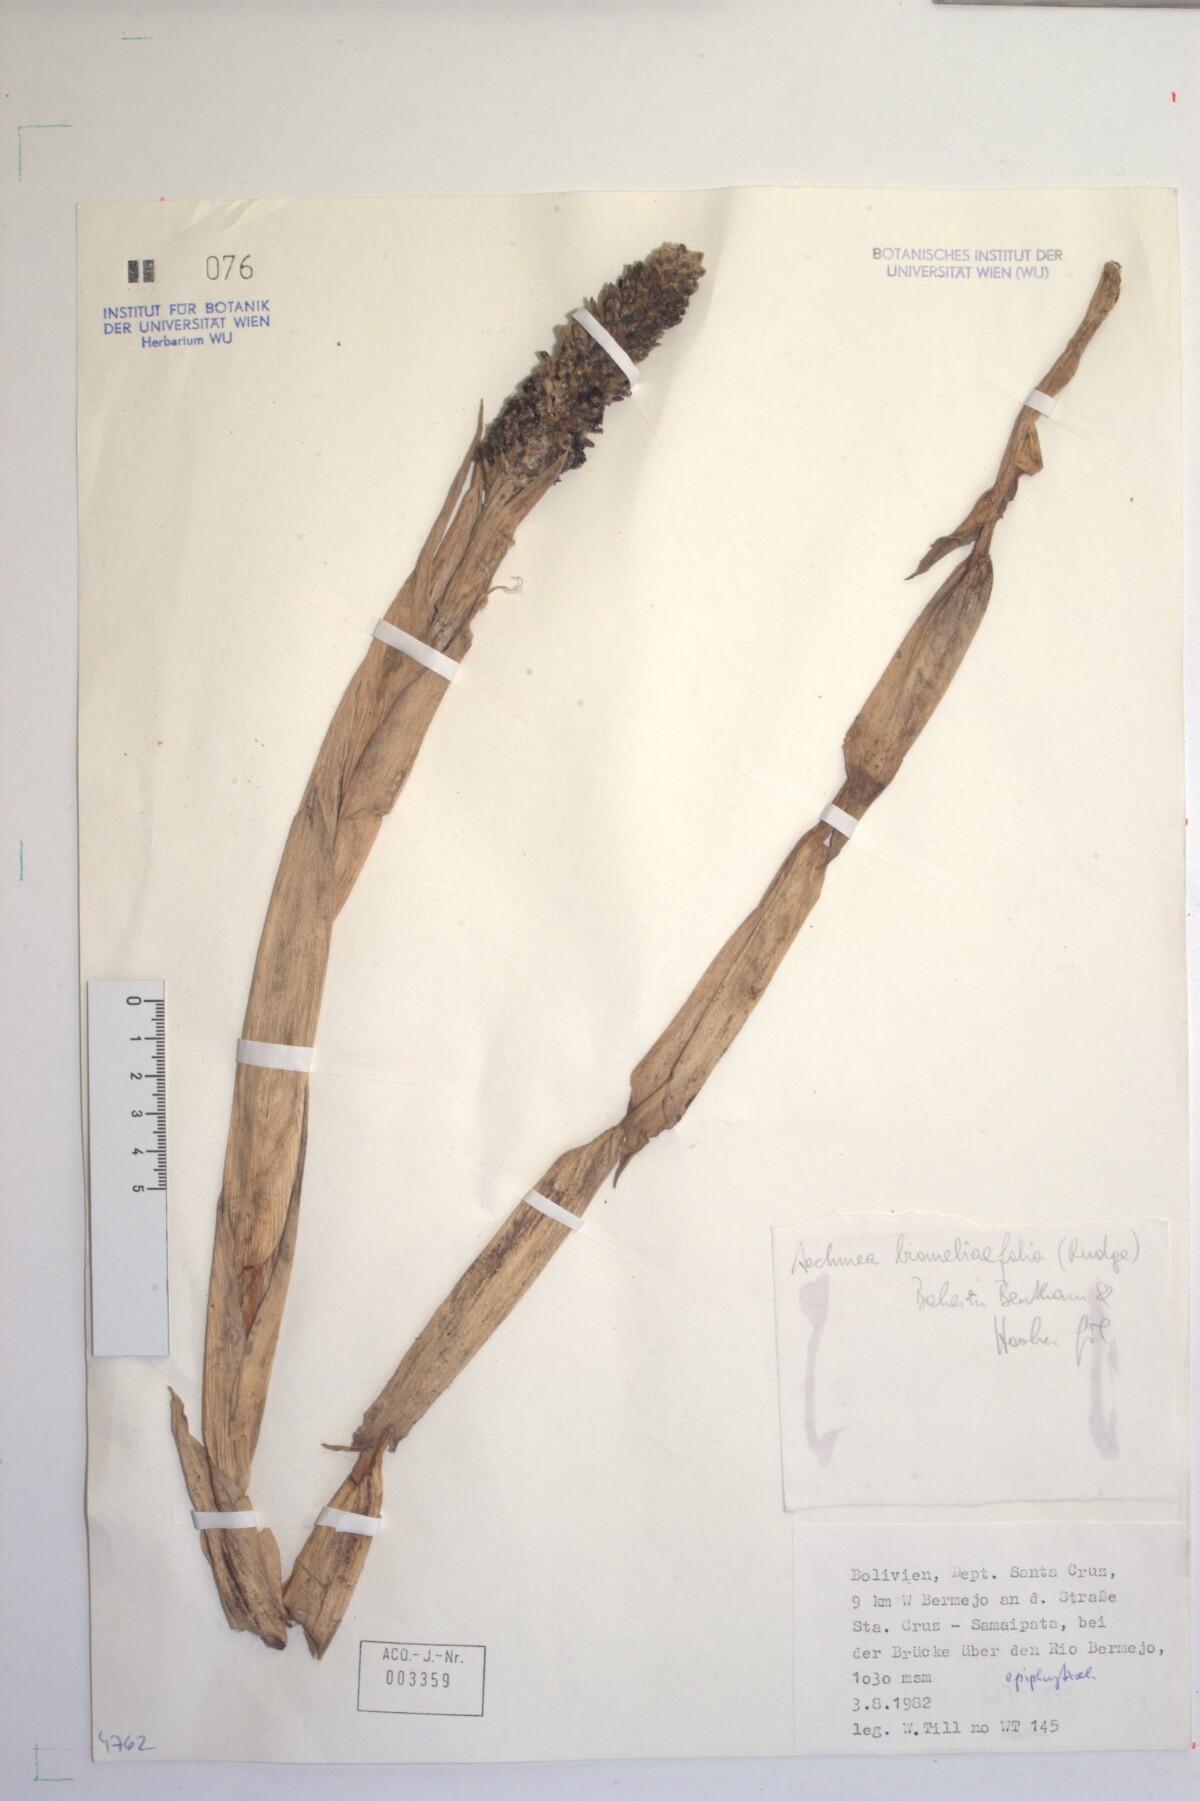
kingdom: Plantae
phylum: Tracheophyta
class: Liliopsida
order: Poales
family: Bromeliaceae
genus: Aechmea
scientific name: Aechmea bromeliifolia
